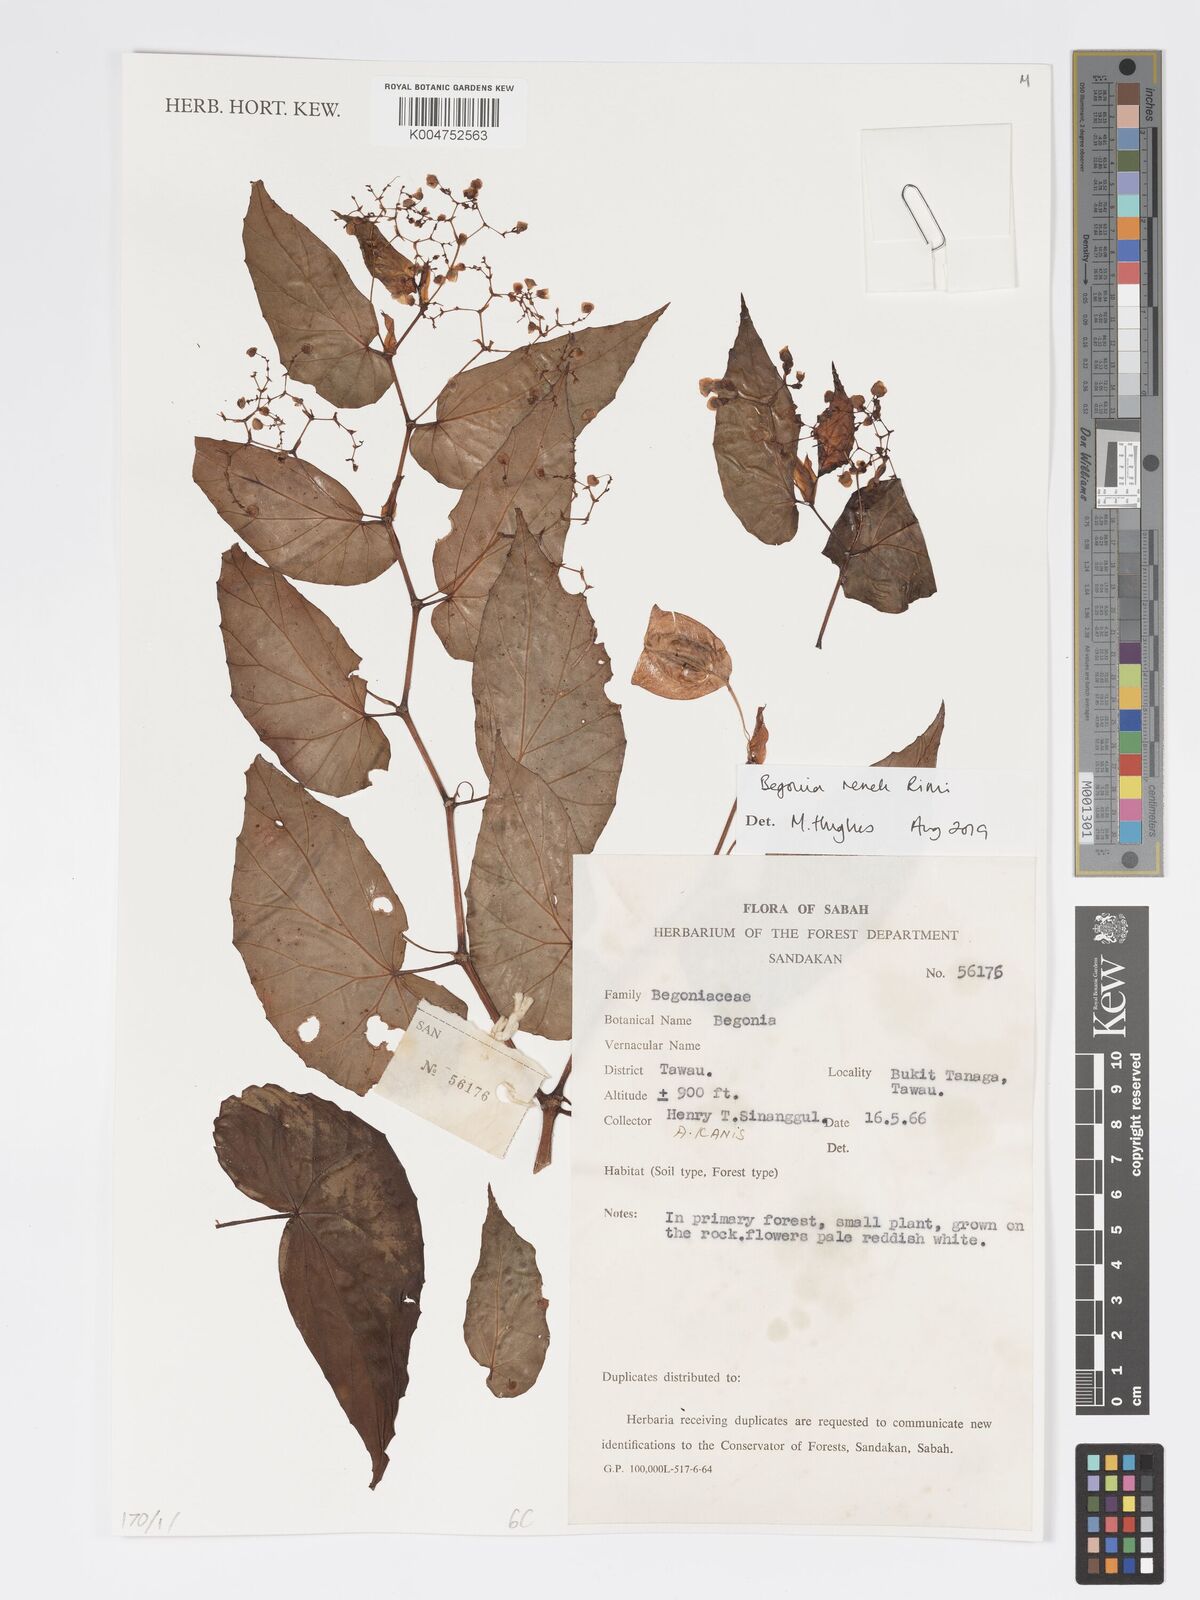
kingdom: Plantae
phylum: Tracheophyta
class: Magnoliopsida
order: Cucurbitales
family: Begoniaceae
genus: Begonia
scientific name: Begonia renek
